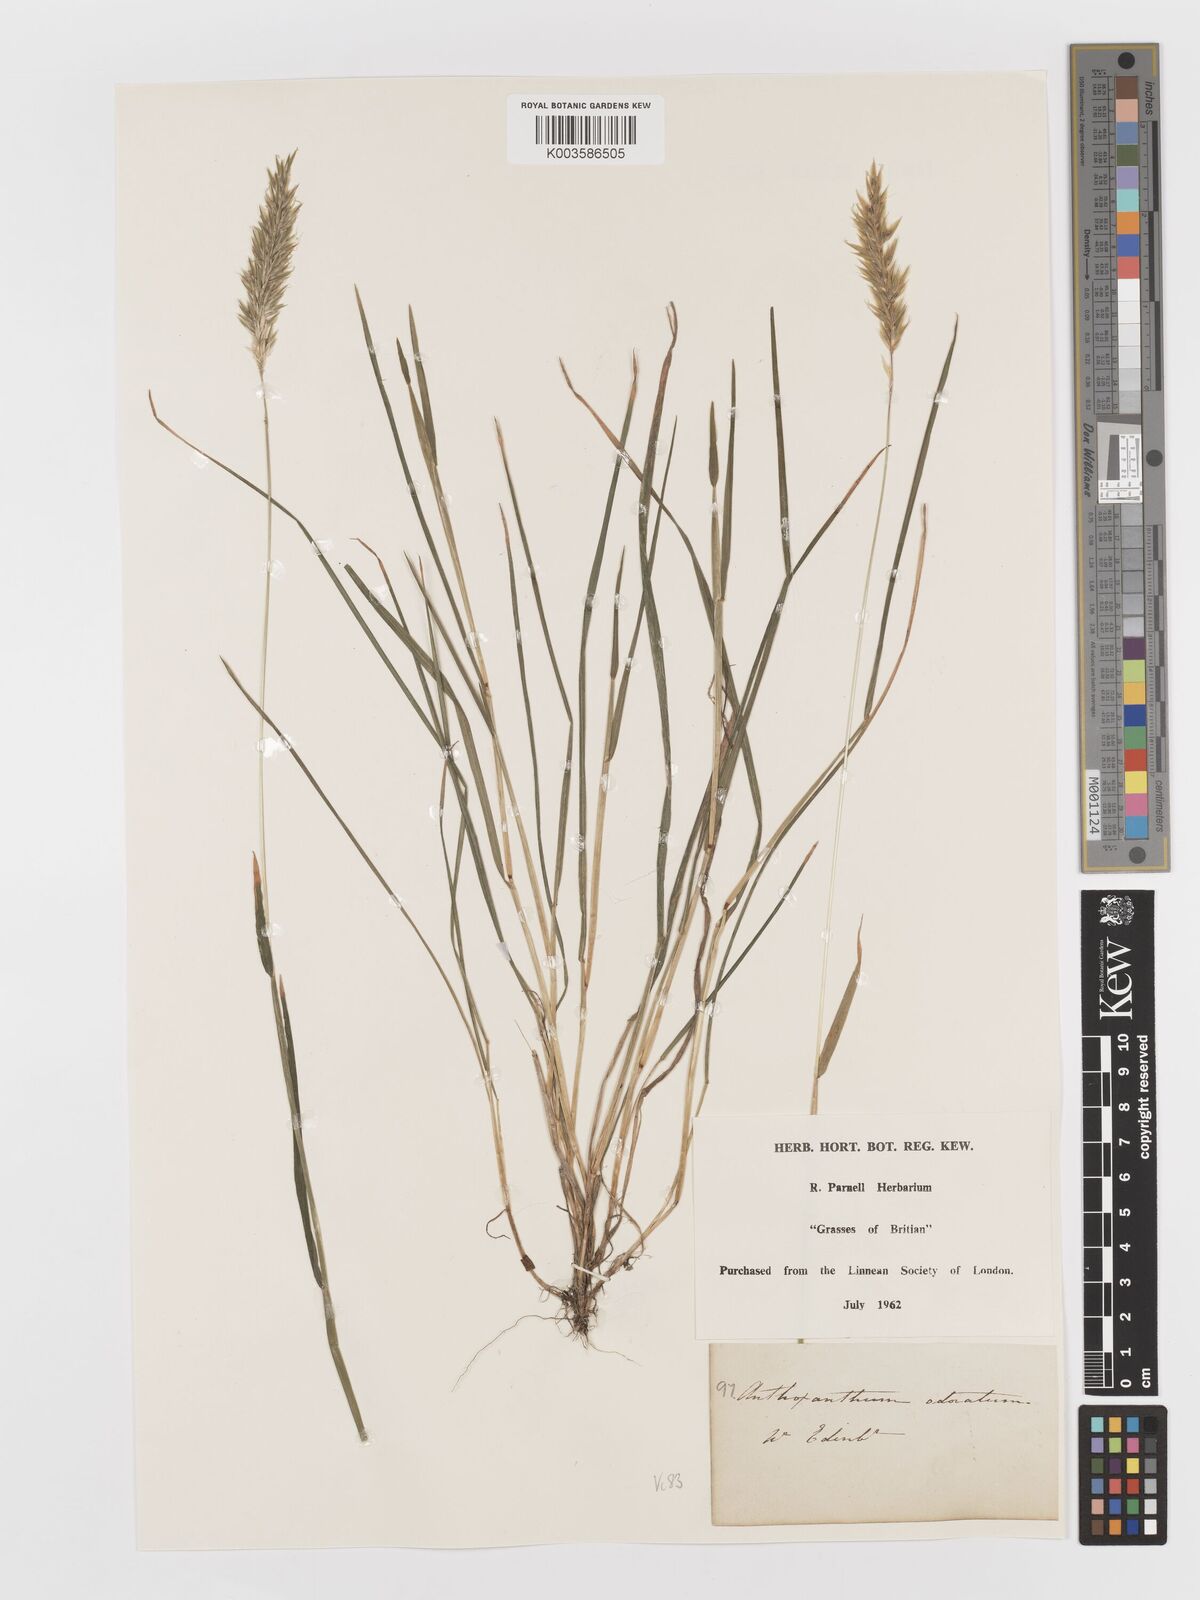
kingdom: Plantae
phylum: Tracheophyta
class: Liliopsida
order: Poales
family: Poaceae
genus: Anthoxanthum
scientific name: Anthoxanthum odoratum
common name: Sweet vernalgrass
